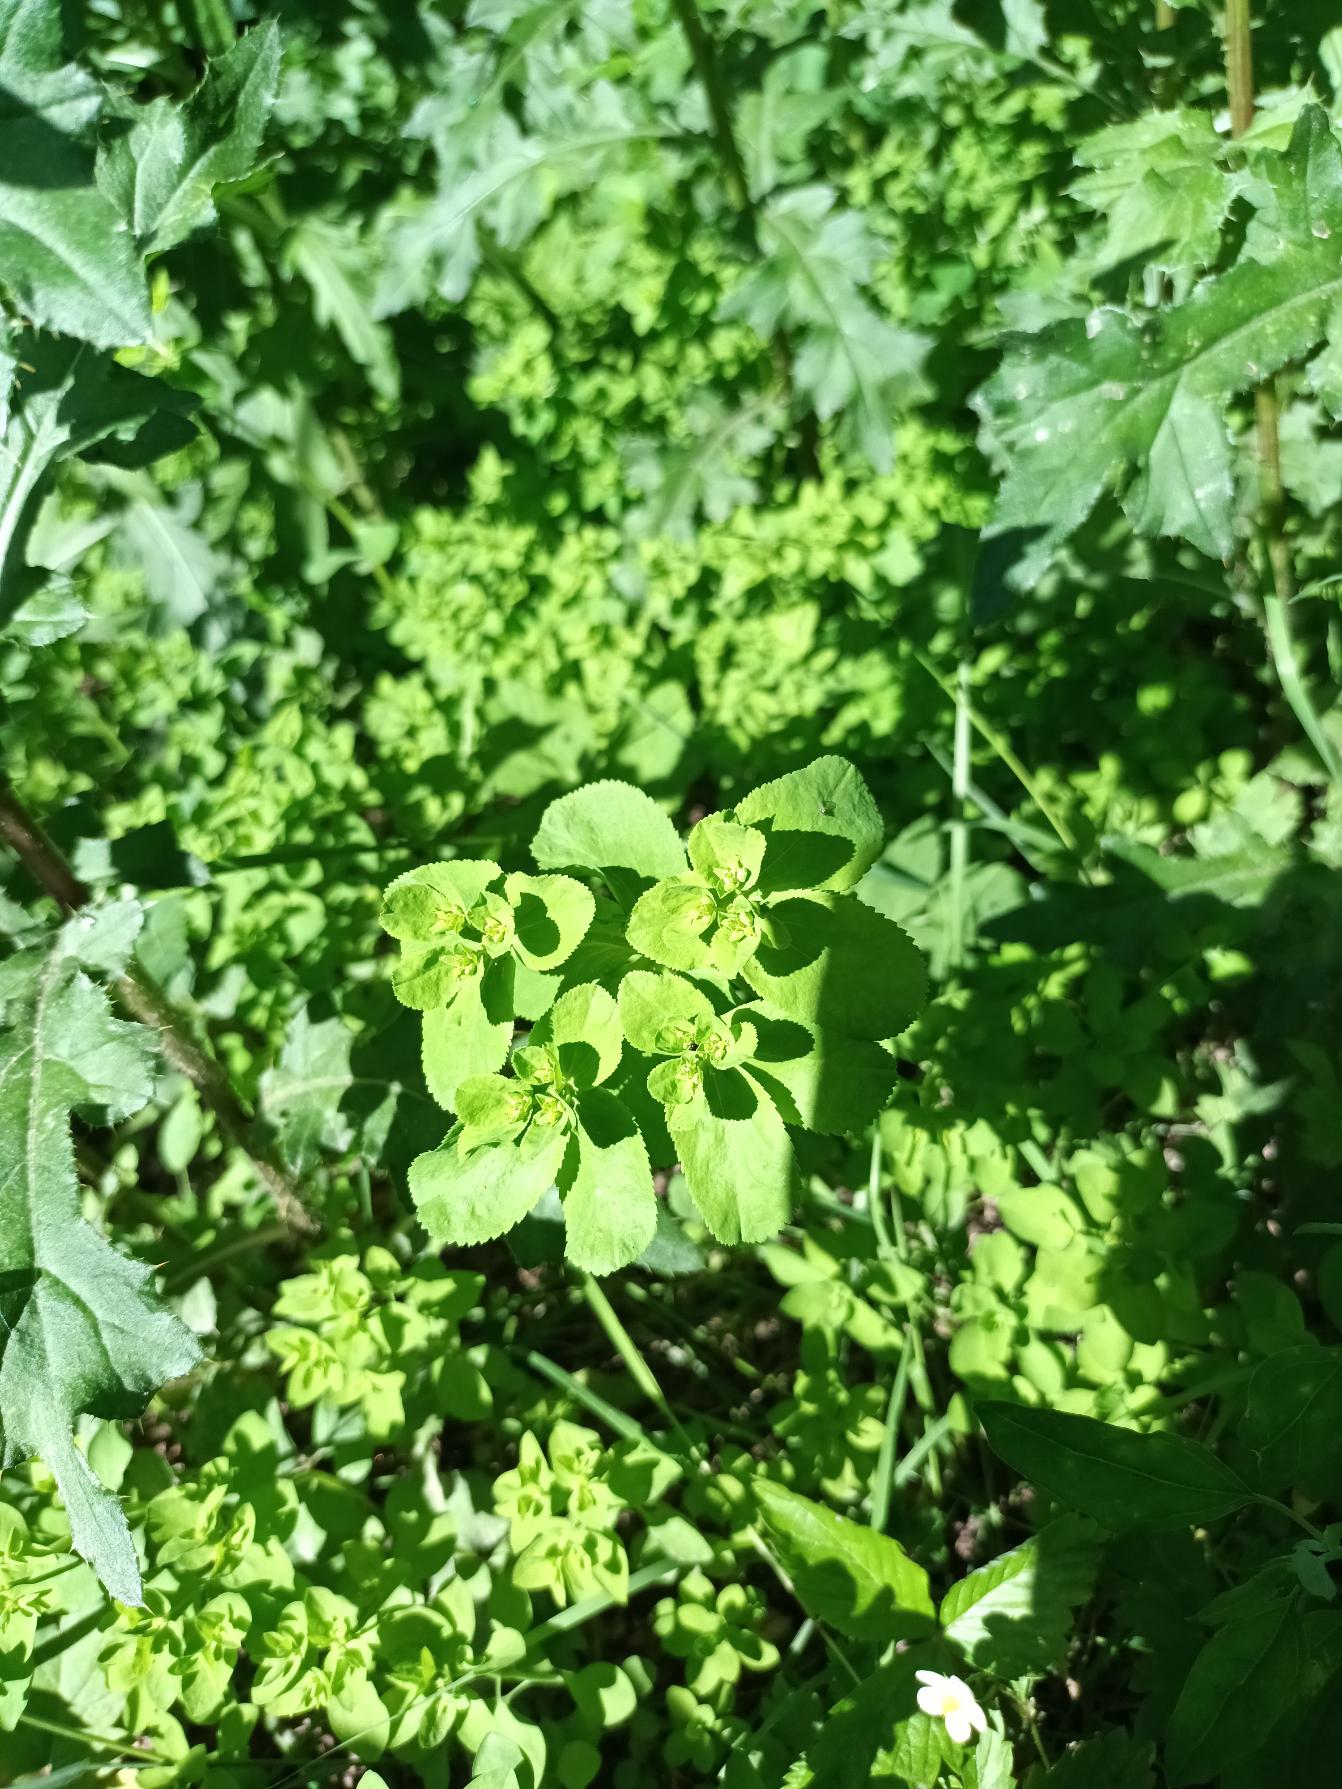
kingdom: Plantae
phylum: Tracheophyta
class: Magnoliopsida
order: Malpighiales
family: Euphorbiaceae
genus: Euphorbia
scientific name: Euphorbia helioscopia
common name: Skærm-vortemælk
